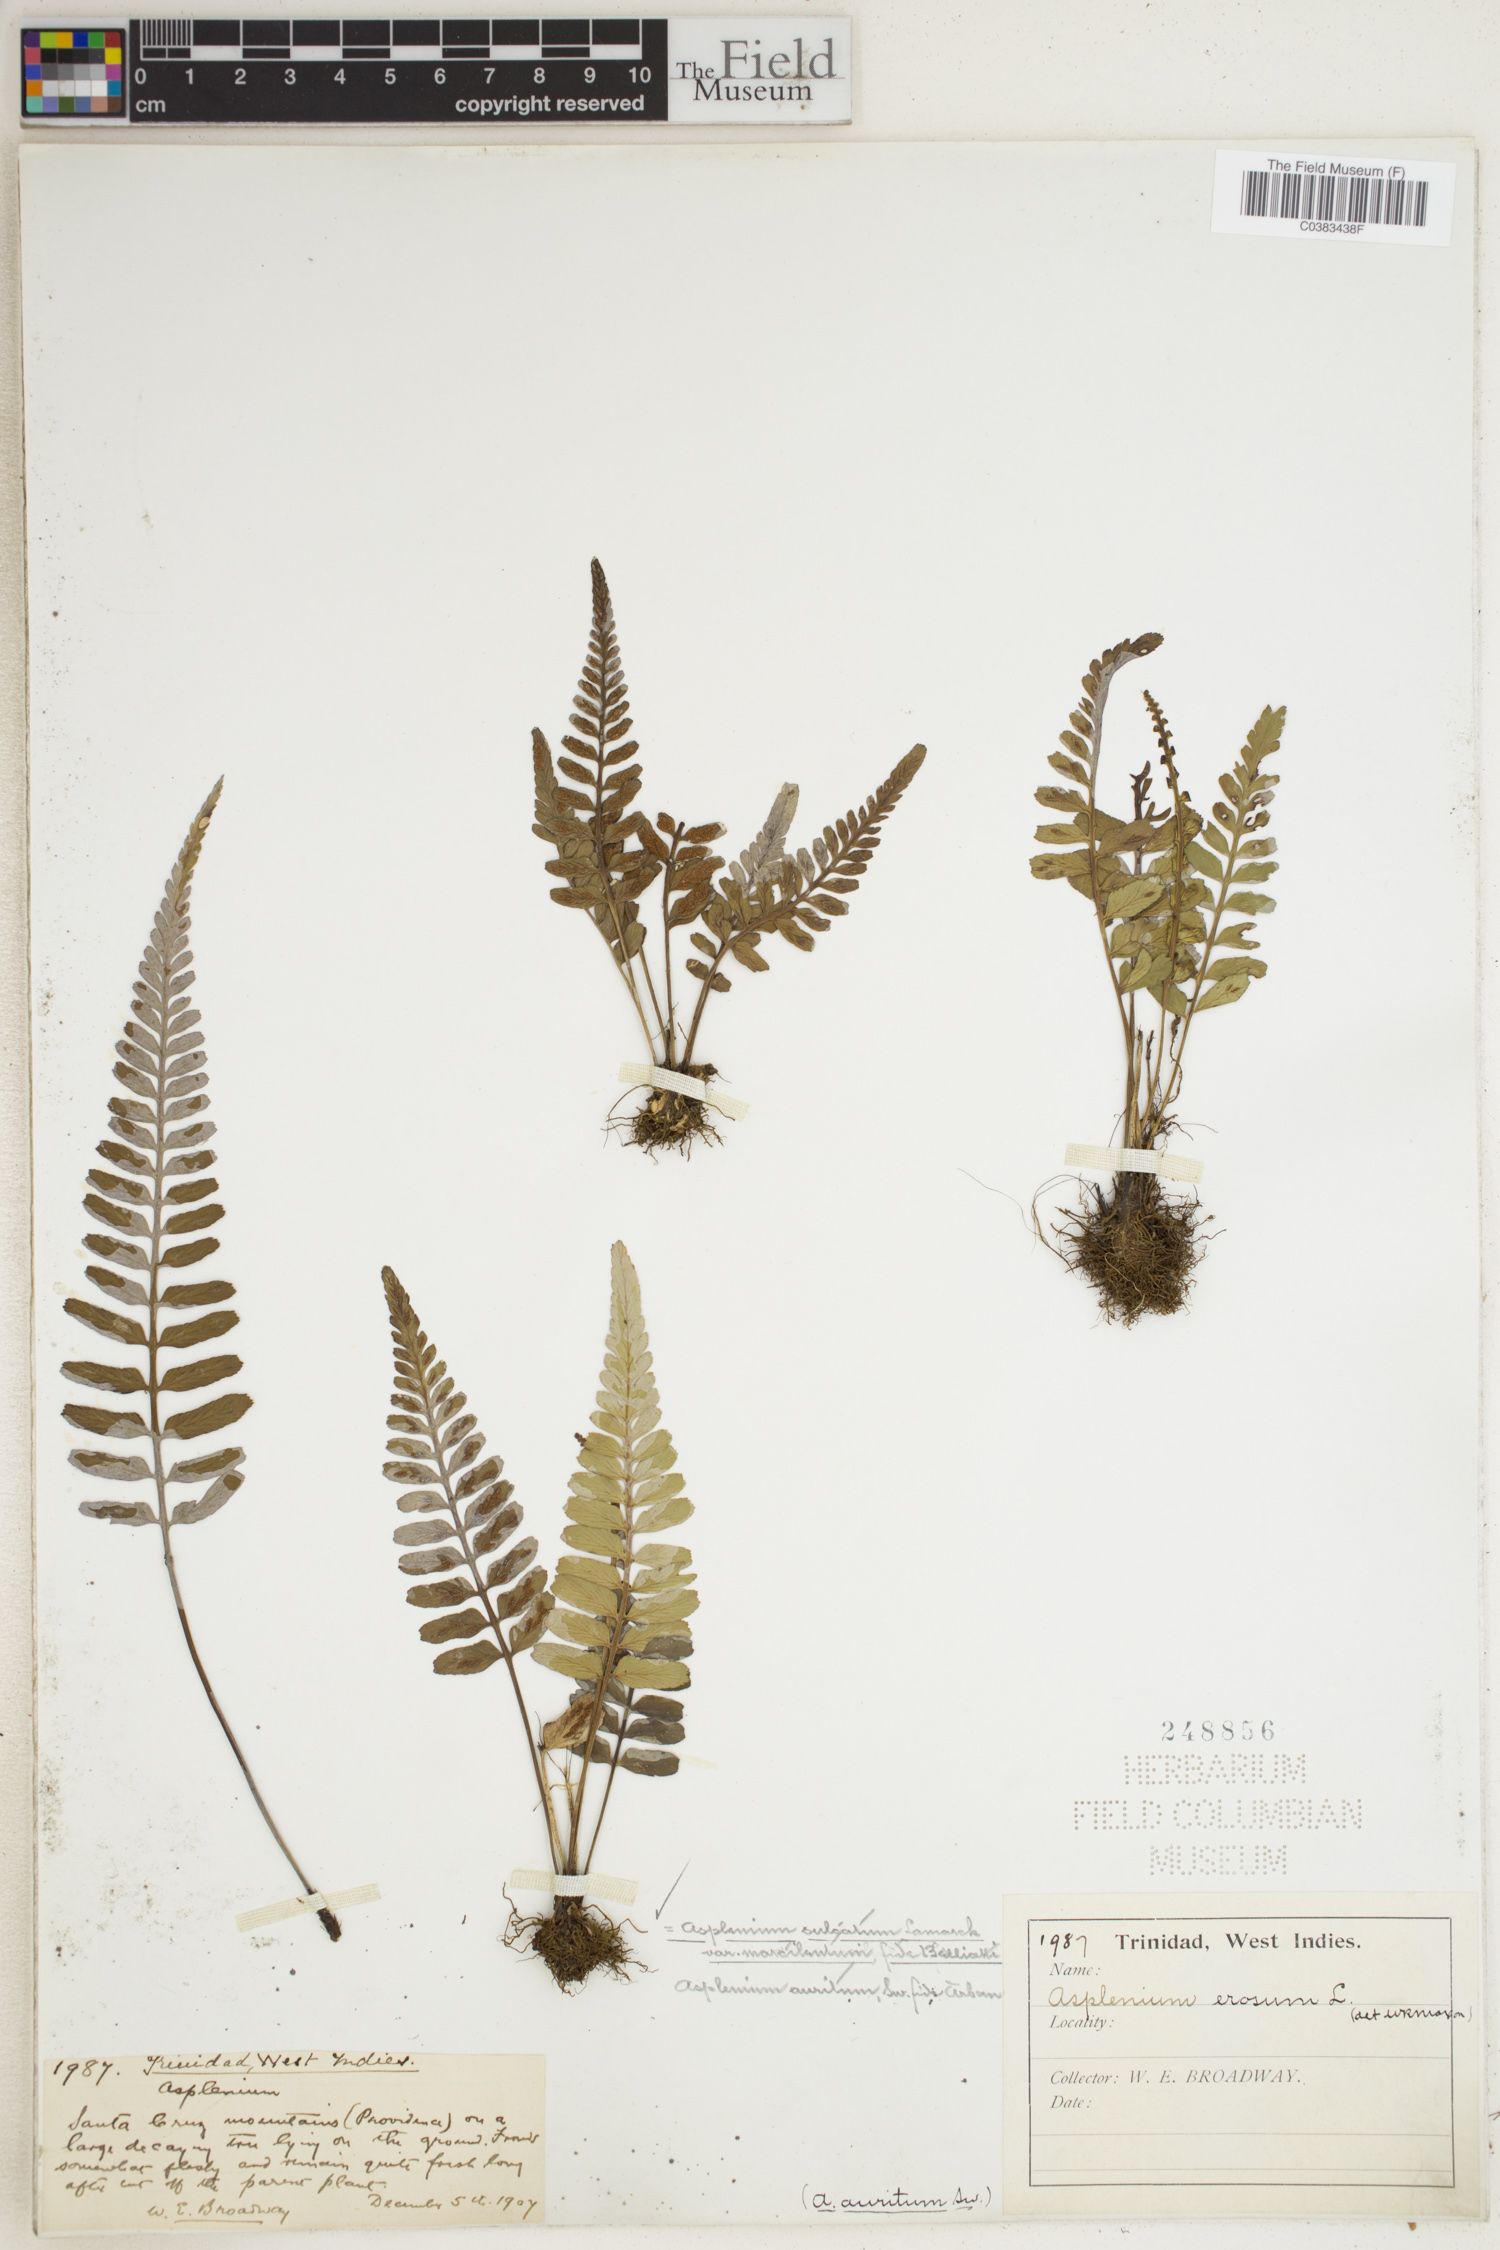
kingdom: Plantae
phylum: Tracheophyta
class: Polypodiopsida
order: Polypodiales
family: Aspleniaceae
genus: Asplenium
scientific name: Asplenium erosum
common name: Eared spleenwort
